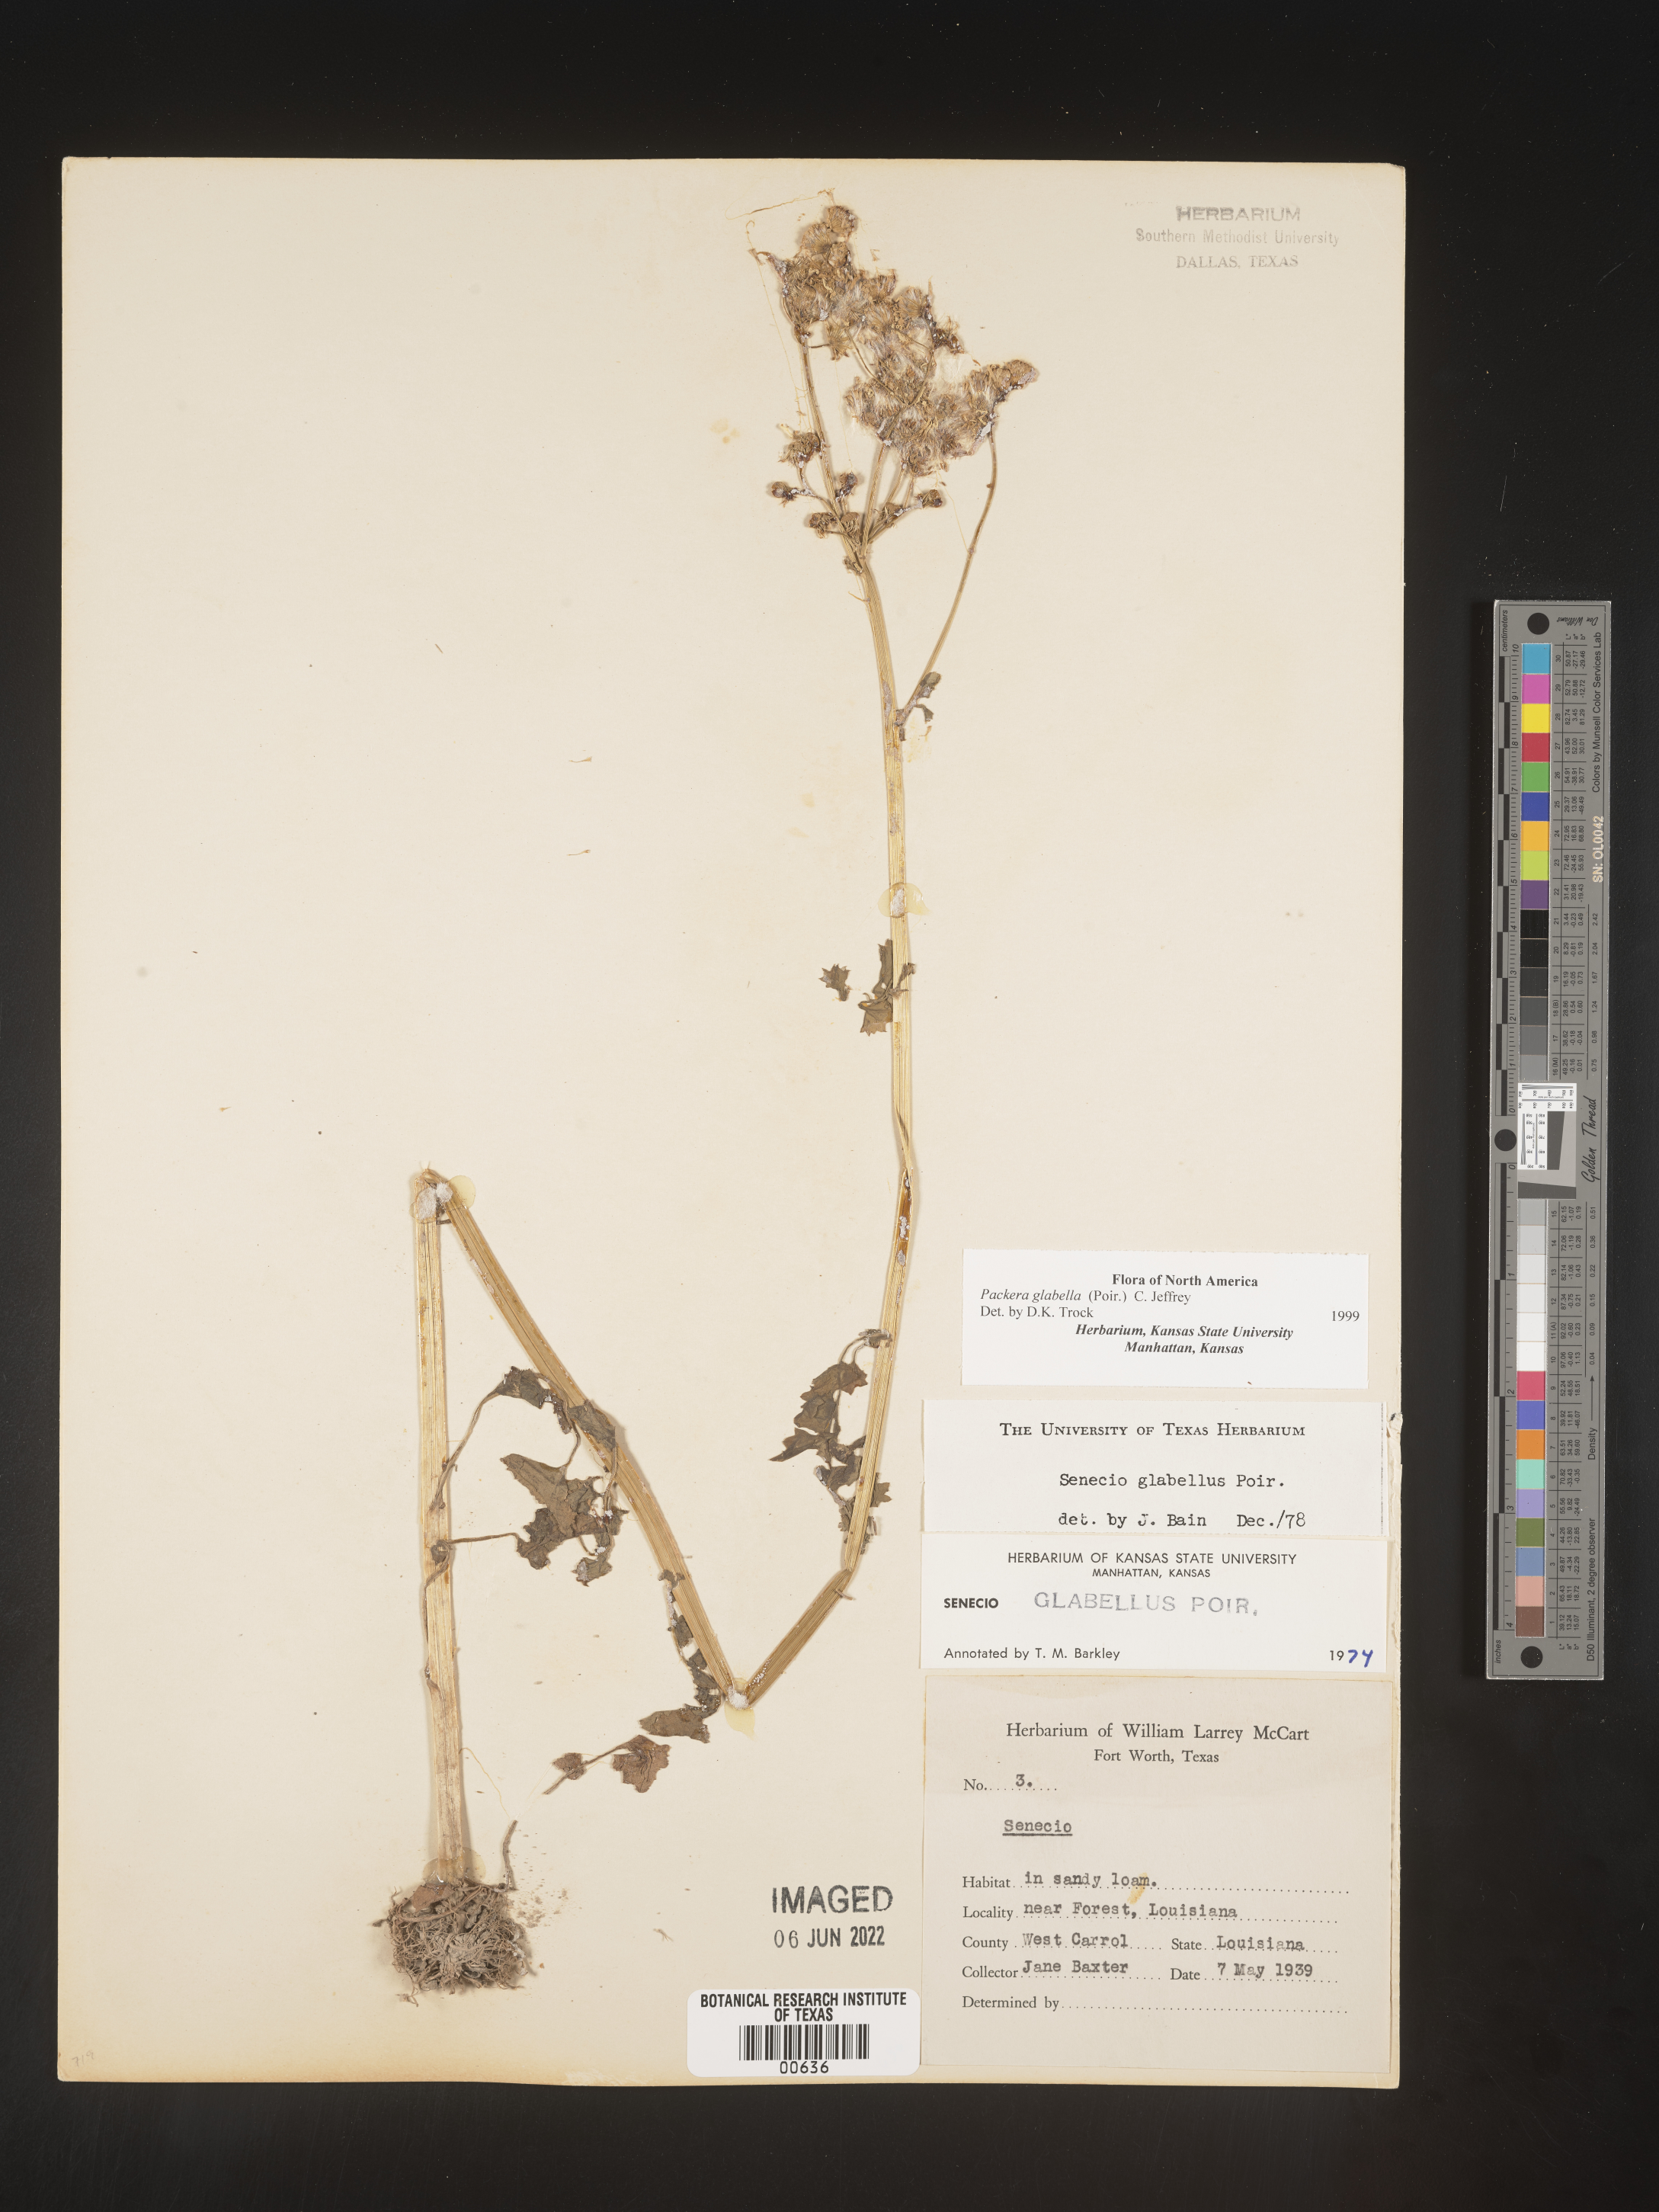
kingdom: Plantae
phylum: Tracheophyta
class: Magnoliopsida
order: Asterales
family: Asteraceae
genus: Packera
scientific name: Packera glabella
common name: Butterweed
